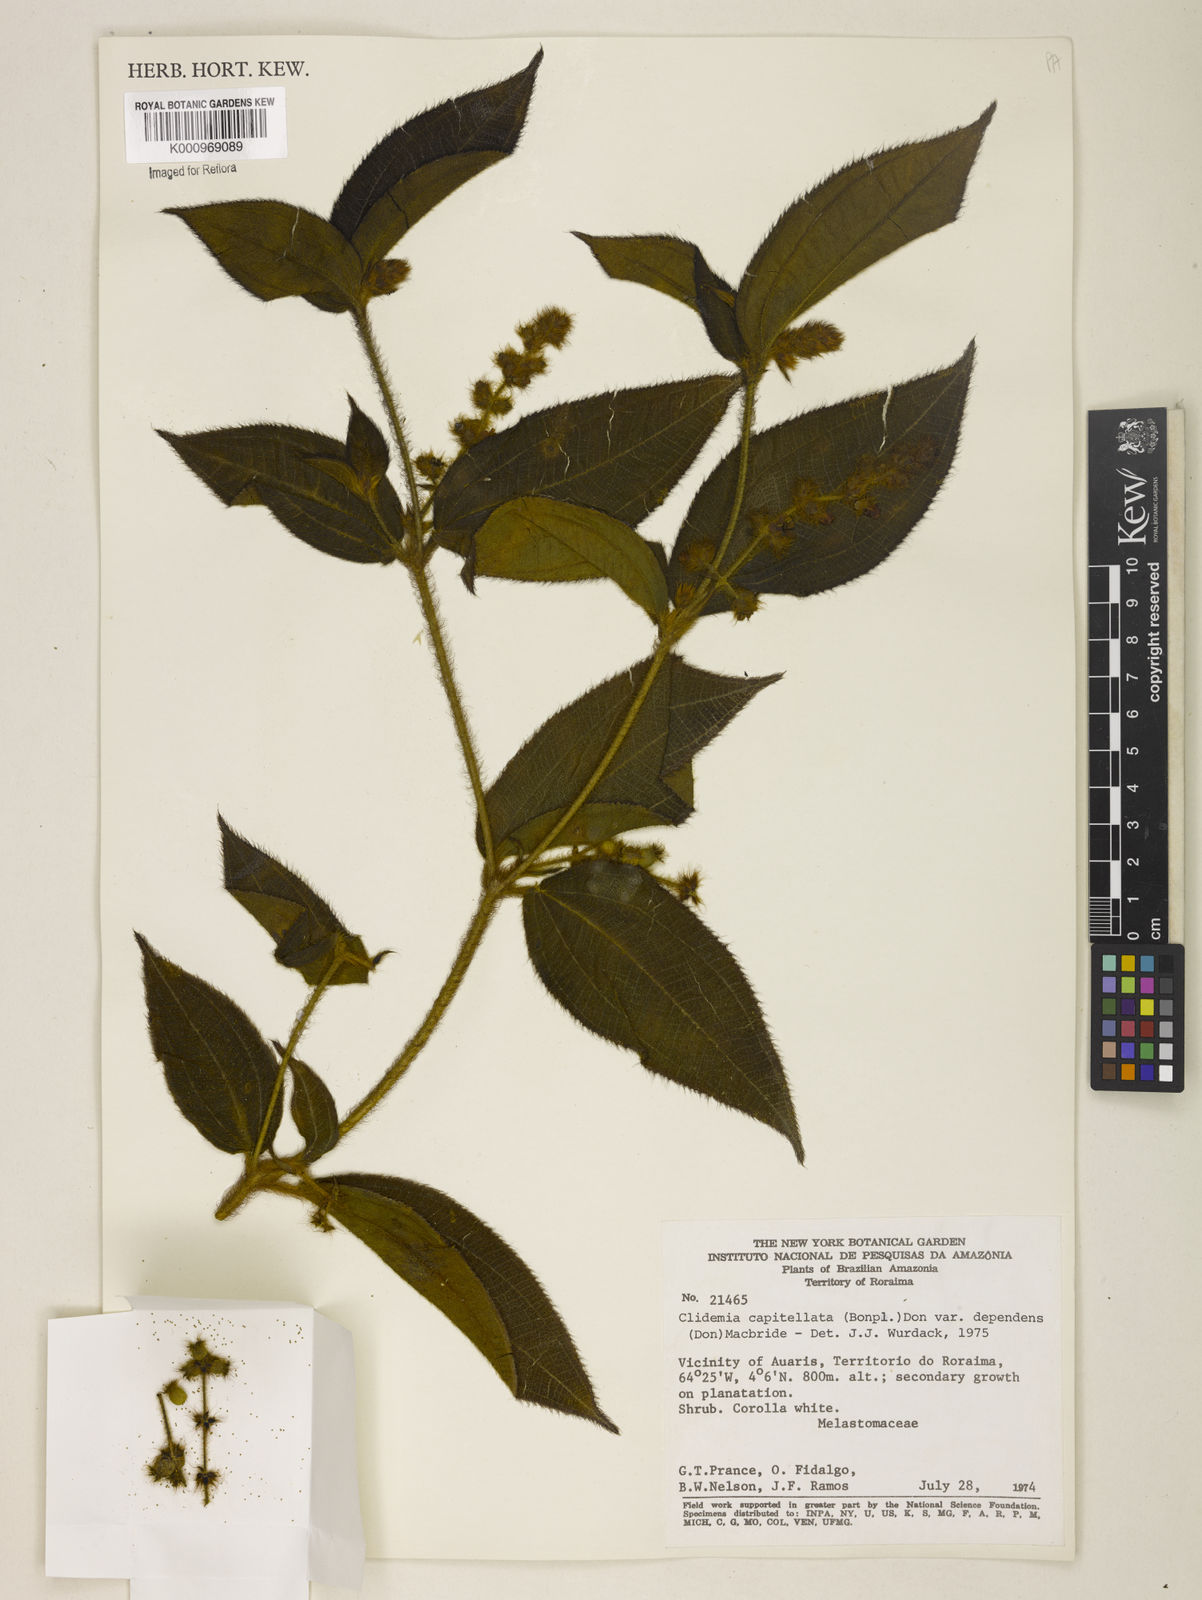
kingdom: Plantae
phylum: Tracheophyta
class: Magnoliopsida
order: Myrtales
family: Melastomataceae
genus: Miconia
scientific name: Miconia dependens
